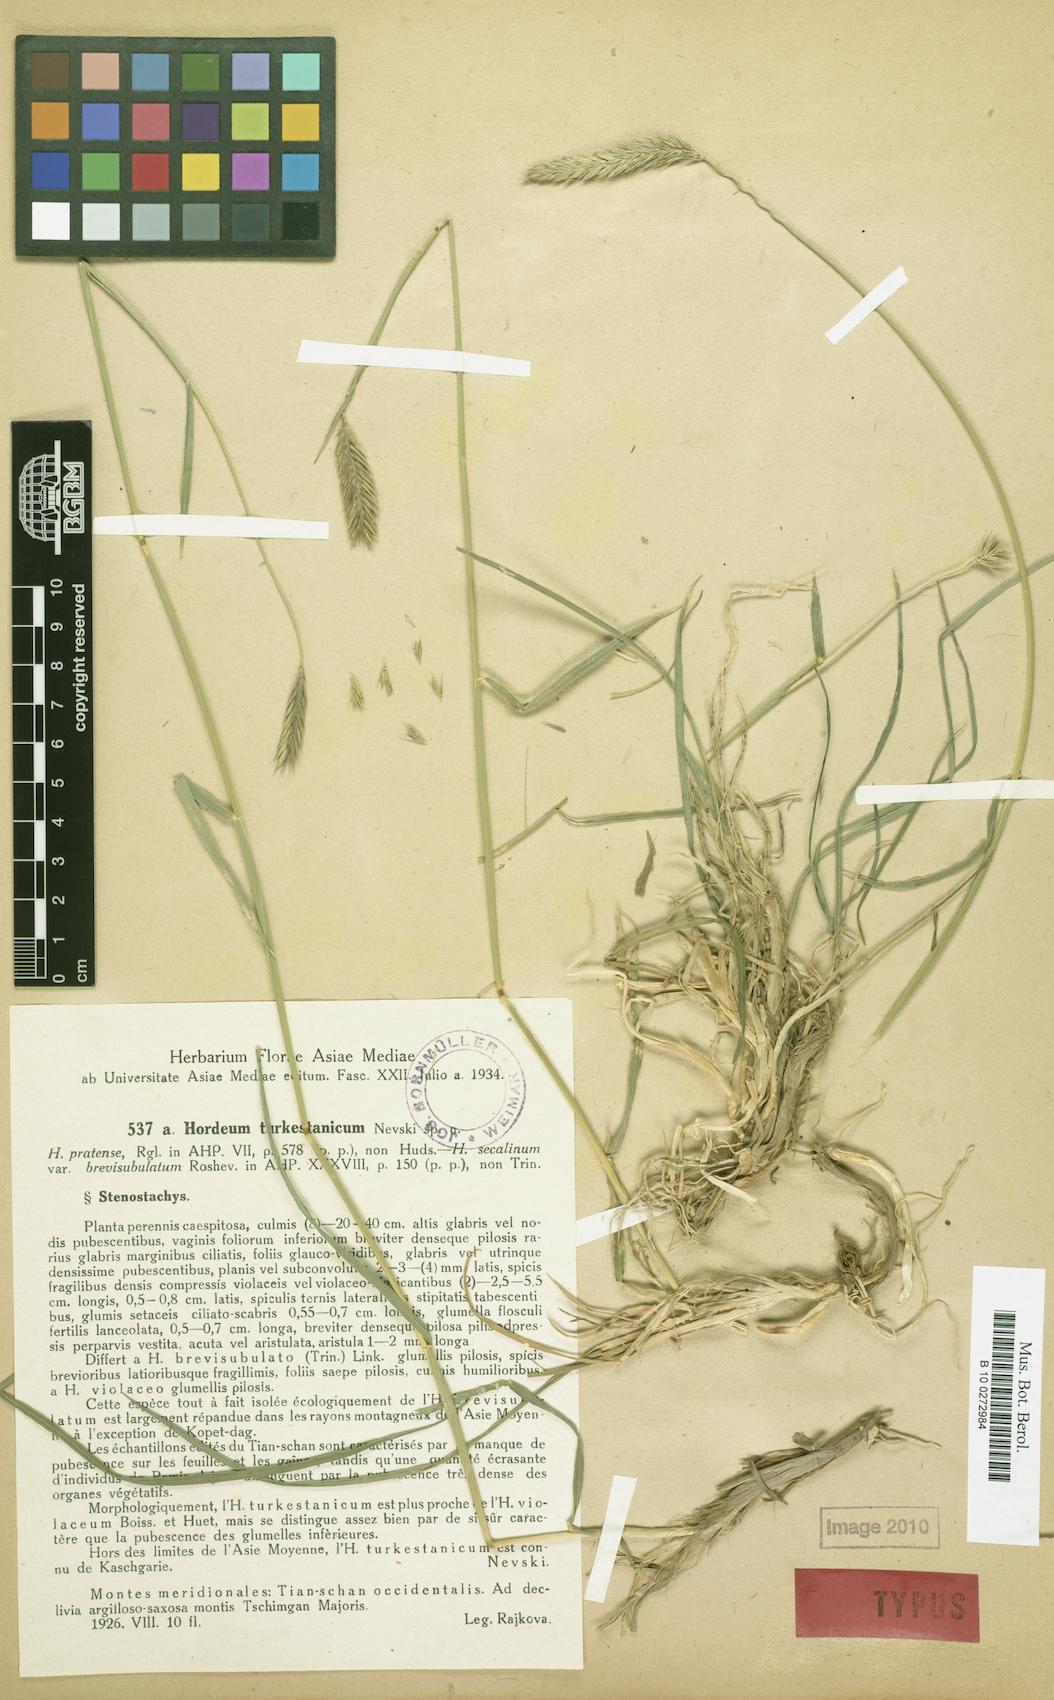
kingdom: Plantae
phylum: Tracheophyta
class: Liliopsida
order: Poales
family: Poaceae
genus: Hordeum
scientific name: Hordeum brevisubulatum
